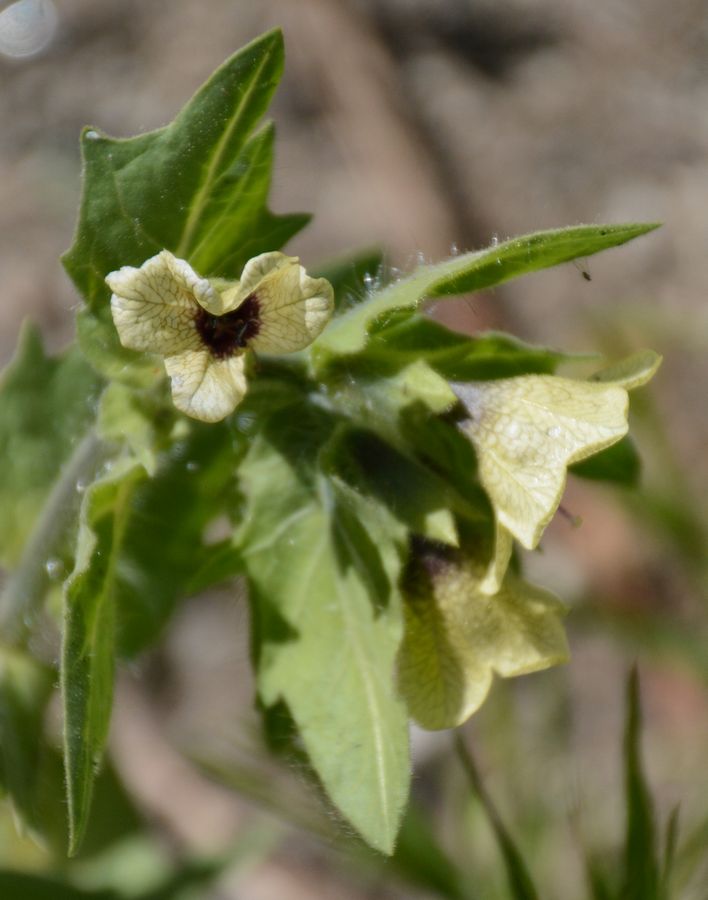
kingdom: Plantae
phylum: Tracheophyta
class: Magnoliopsida
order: Solanales
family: Solanaceae
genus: Hyoscyamus
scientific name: Hyoscyamus niger
